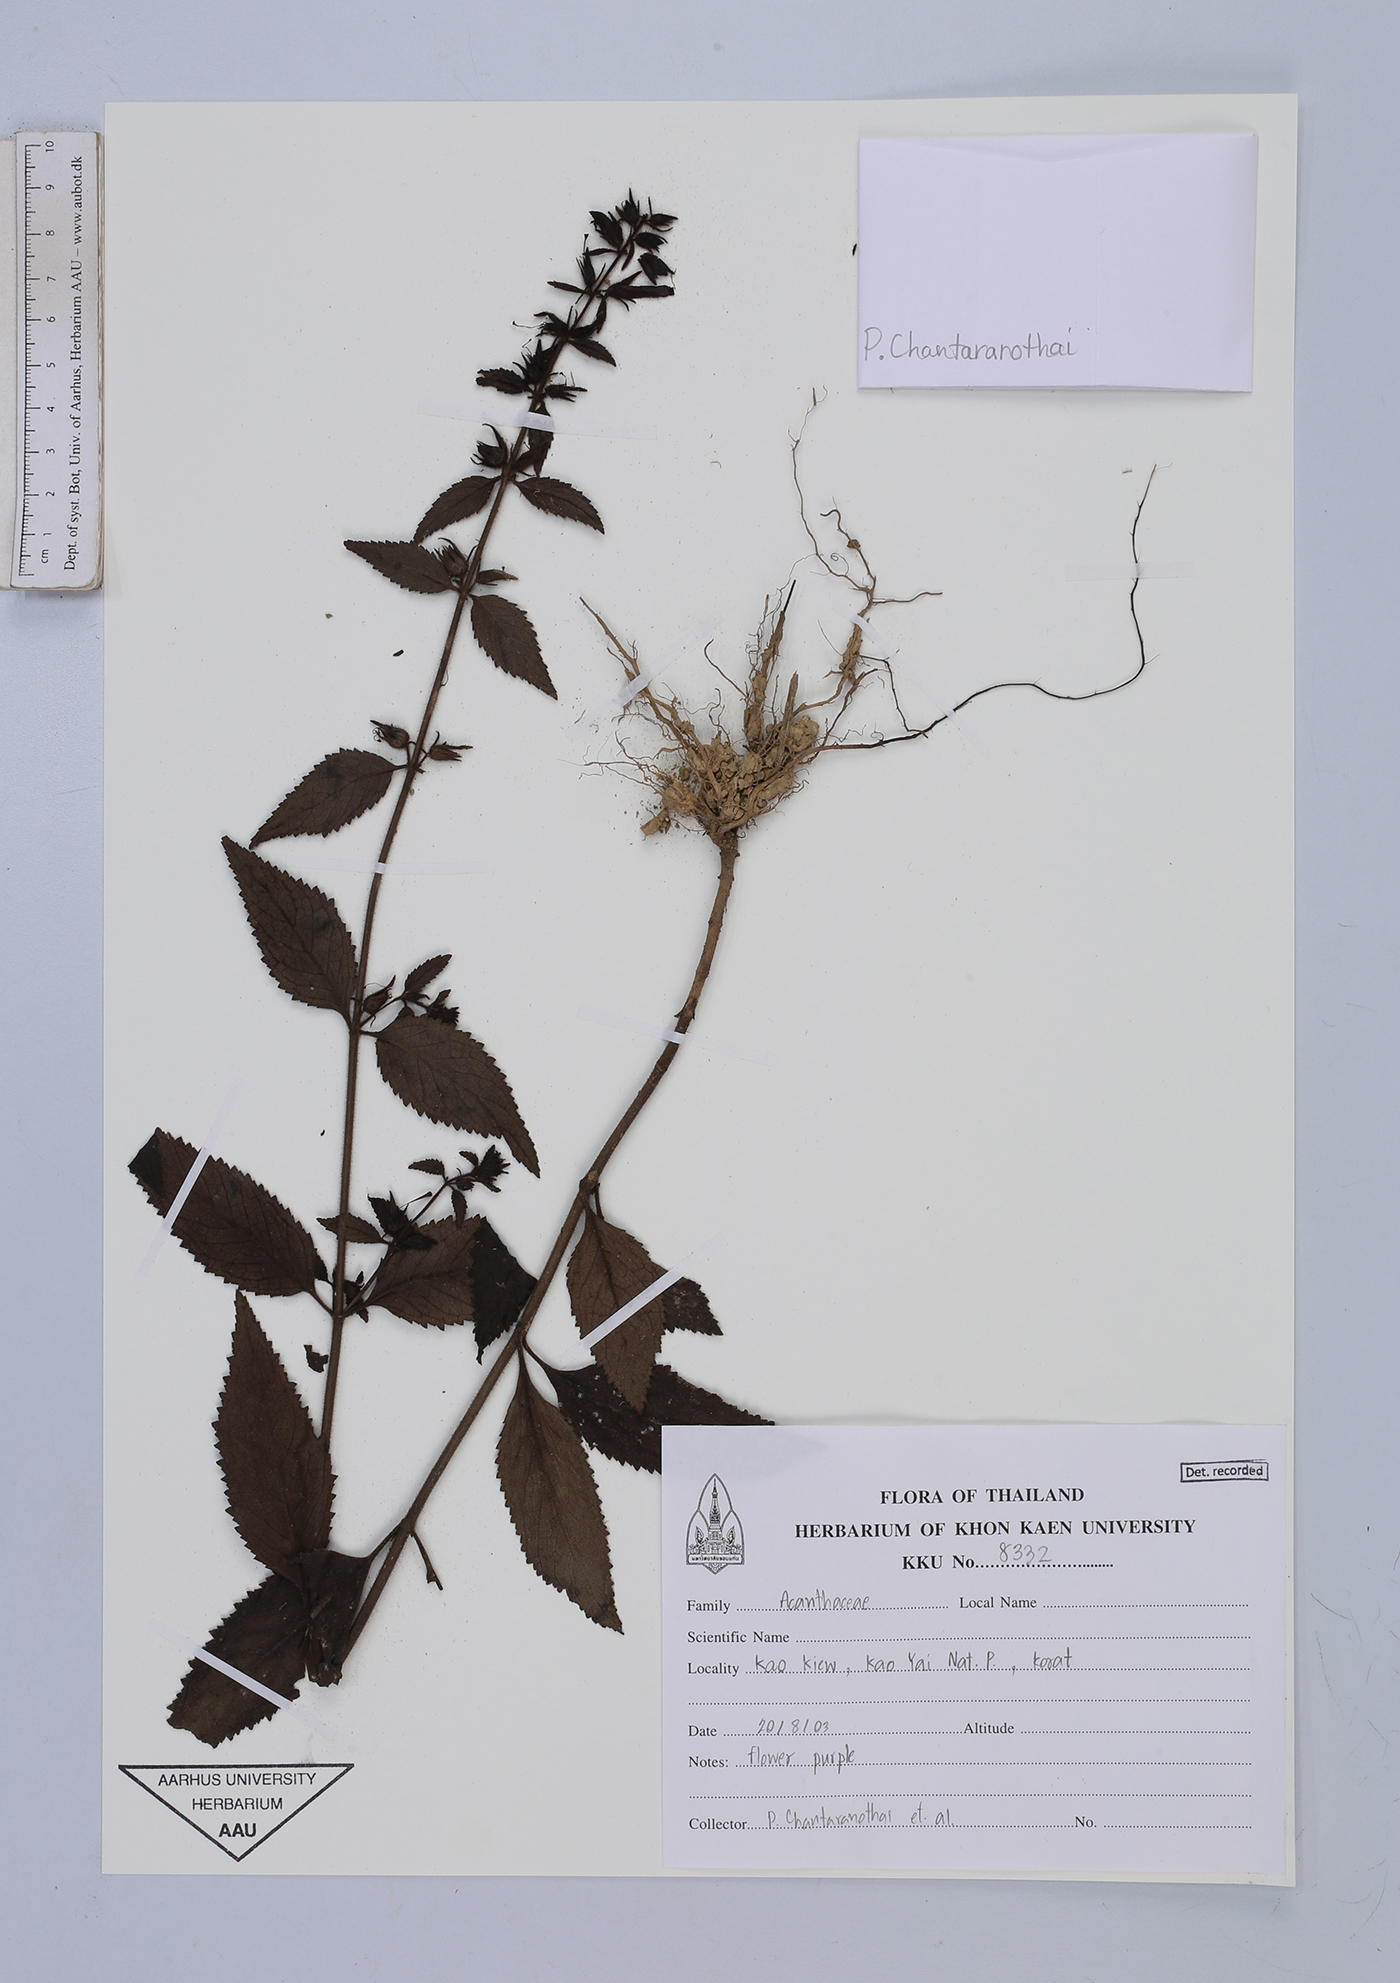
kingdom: Plantae
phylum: Tracheophyta
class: Magnoliopsida
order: Lamiales
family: Scrophulariaceae
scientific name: Scrophulariaceae
